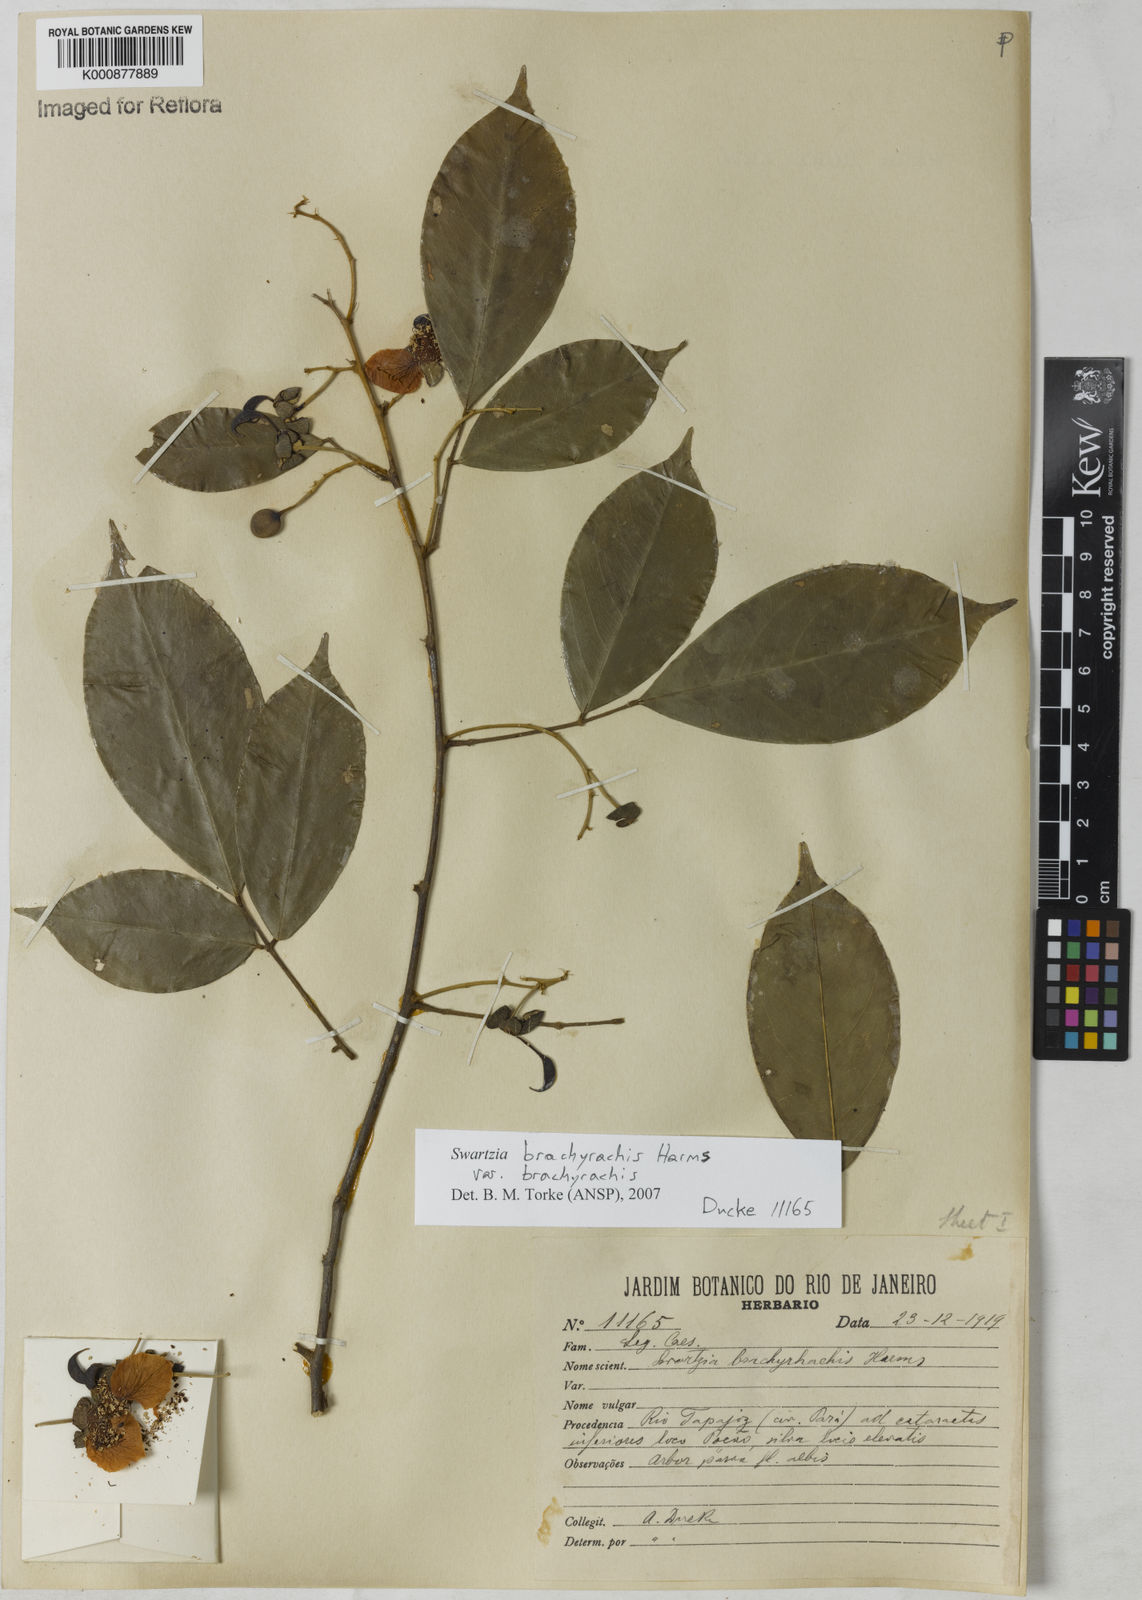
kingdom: Plantae
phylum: Tracheophyta
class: Magnoliopsida
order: Fabales
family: Fabaceae
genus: Swartzia
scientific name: Swartzia
